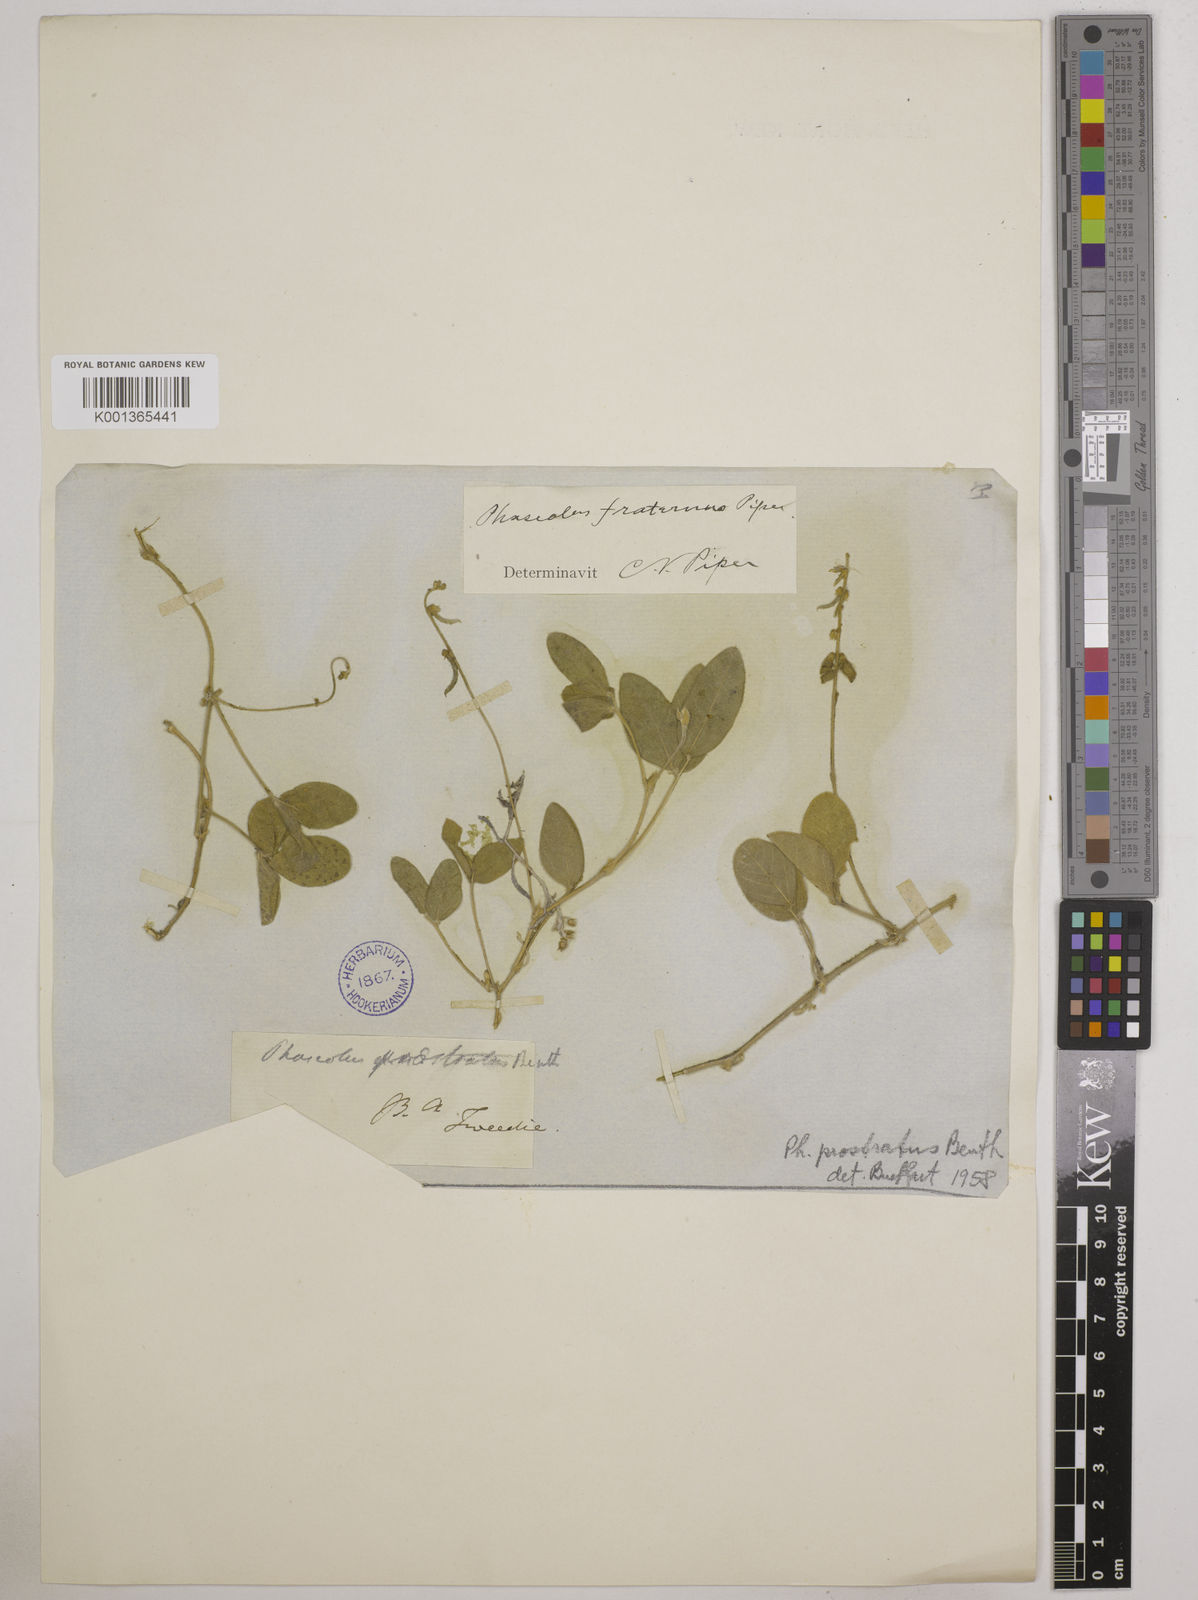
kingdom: Plantae
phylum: Tracheophyta
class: Magnoliopsida
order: Fabales
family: Fabaceae
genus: Macroptilium
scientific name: Macroptilium prostratum
